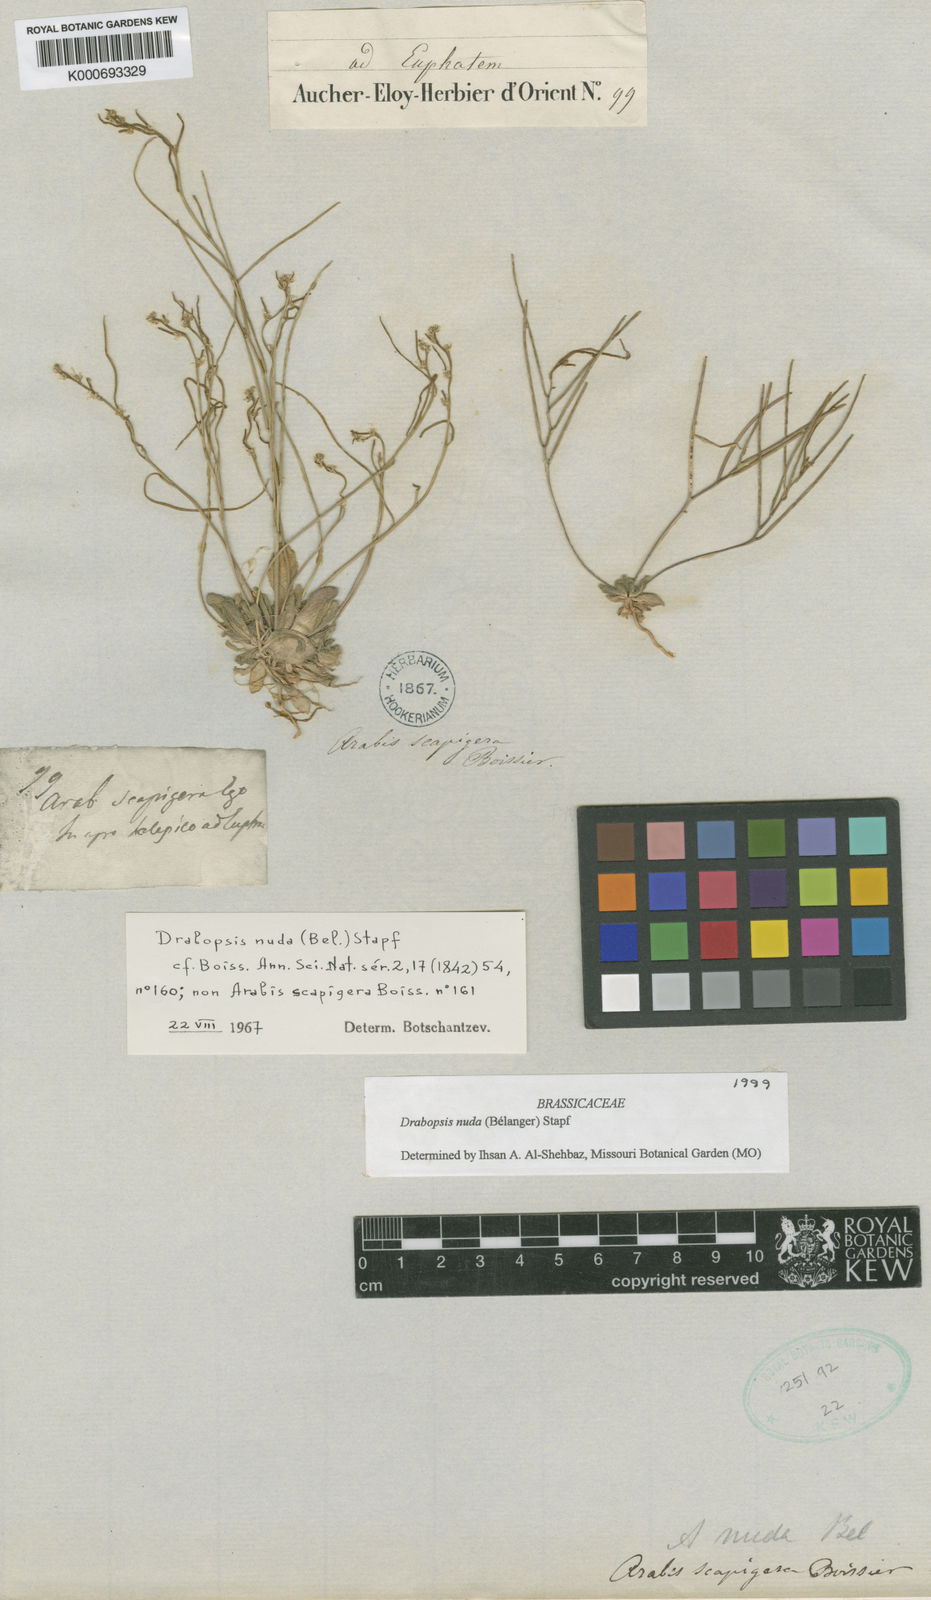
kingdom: Plantae
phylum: Tracheophyta
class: Magnoliopsida
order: Brassicales
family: Brassicaceae
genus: Draba
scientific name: Draba
